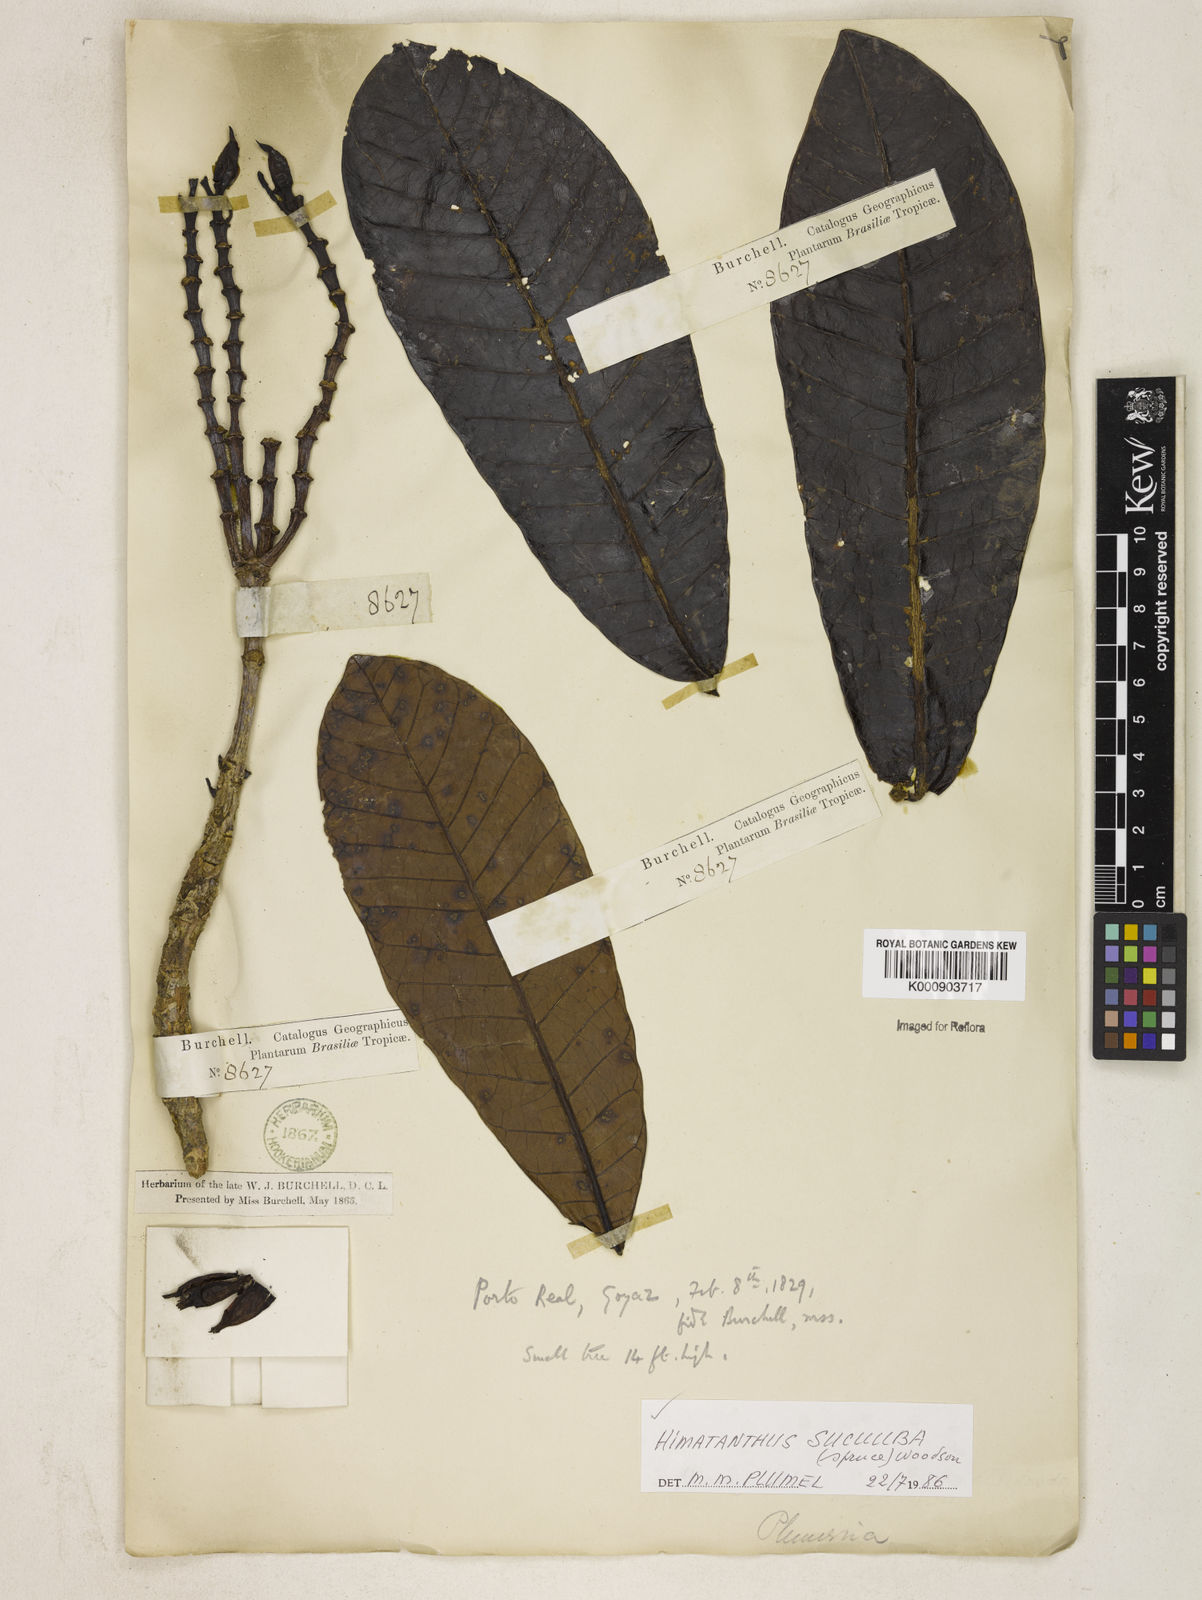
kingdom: Plantae
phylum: Tracheophyta
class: Magnoliopsida
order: Gentianales
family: Apocynaceae
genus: Himatanthus
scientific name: Himatanthus articulatus
